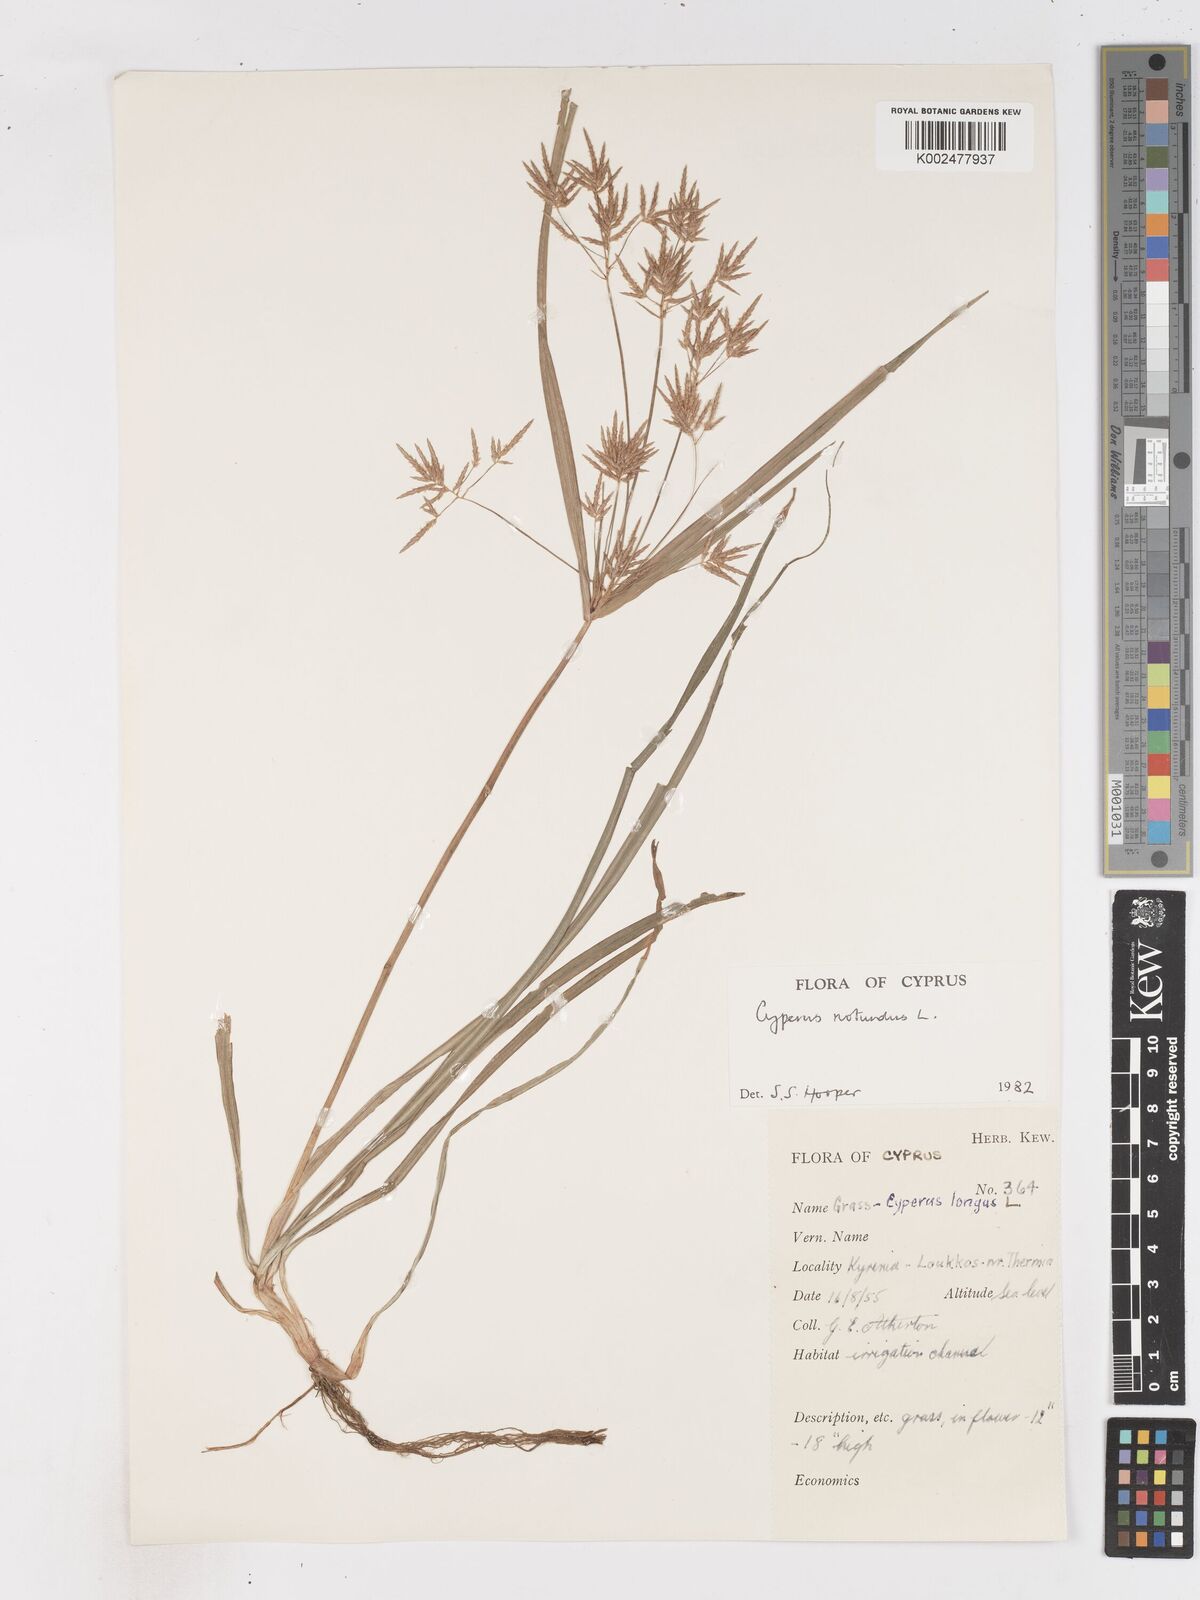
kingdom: Plantae
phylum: Tracheophyta
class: Liliopsida
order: Poales
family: Cyperaceae
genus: Cyperus
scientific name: Cyperus rotundus
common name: Nutgrass
